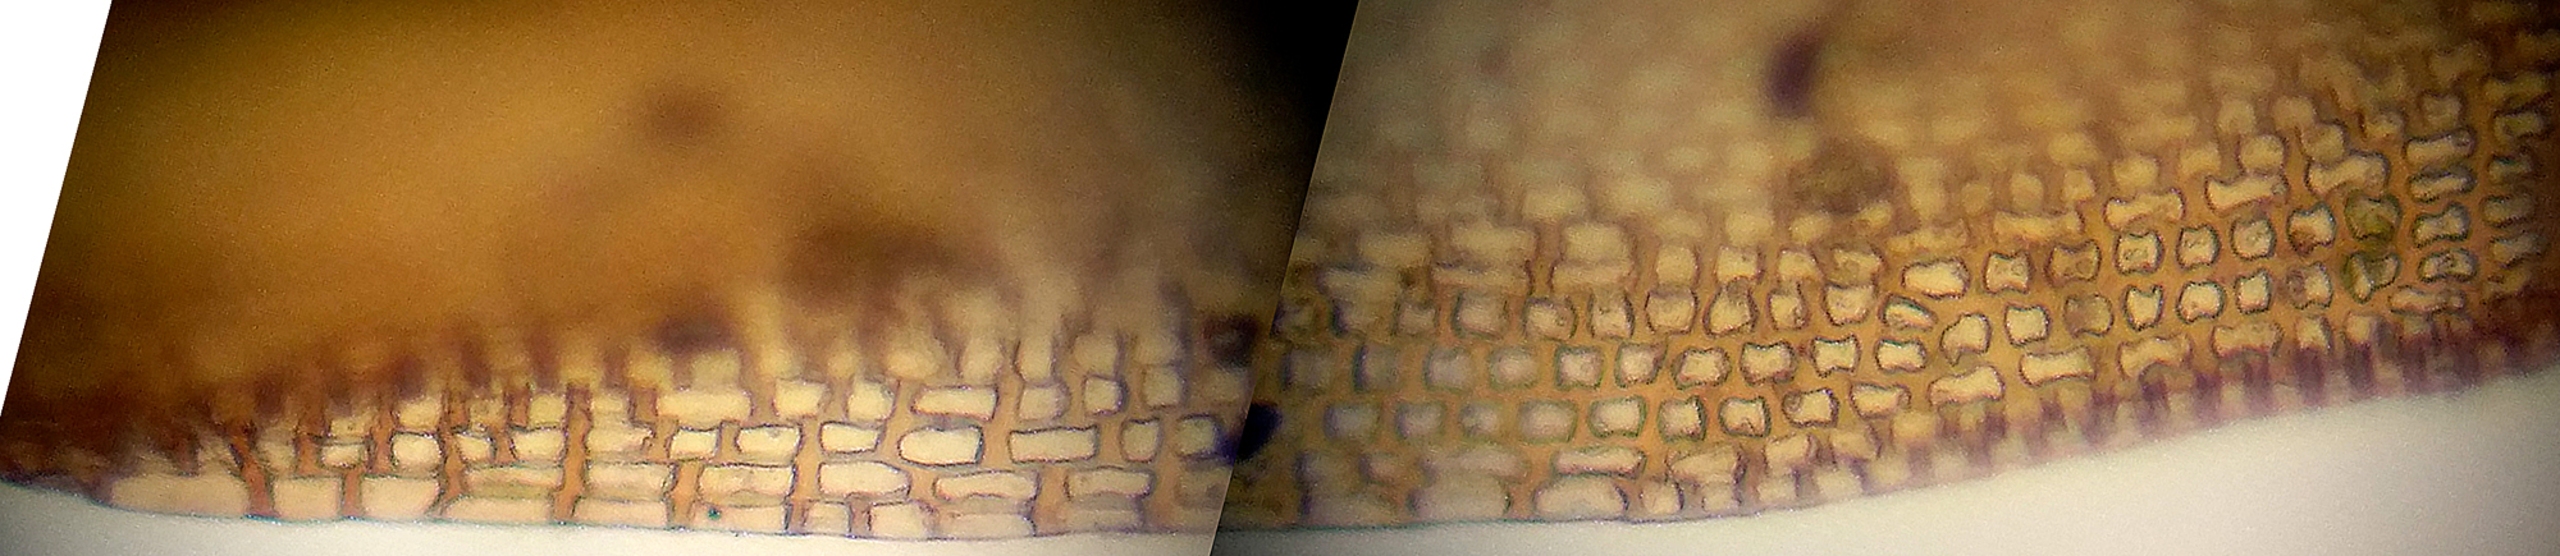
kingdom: Plantae
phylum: Bryophyta
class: Bryopsida
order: Grimmiales
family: Grimmiaceae
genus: Grimmia
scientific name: Grimmia trichophylla
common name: Glathåret gråmos
